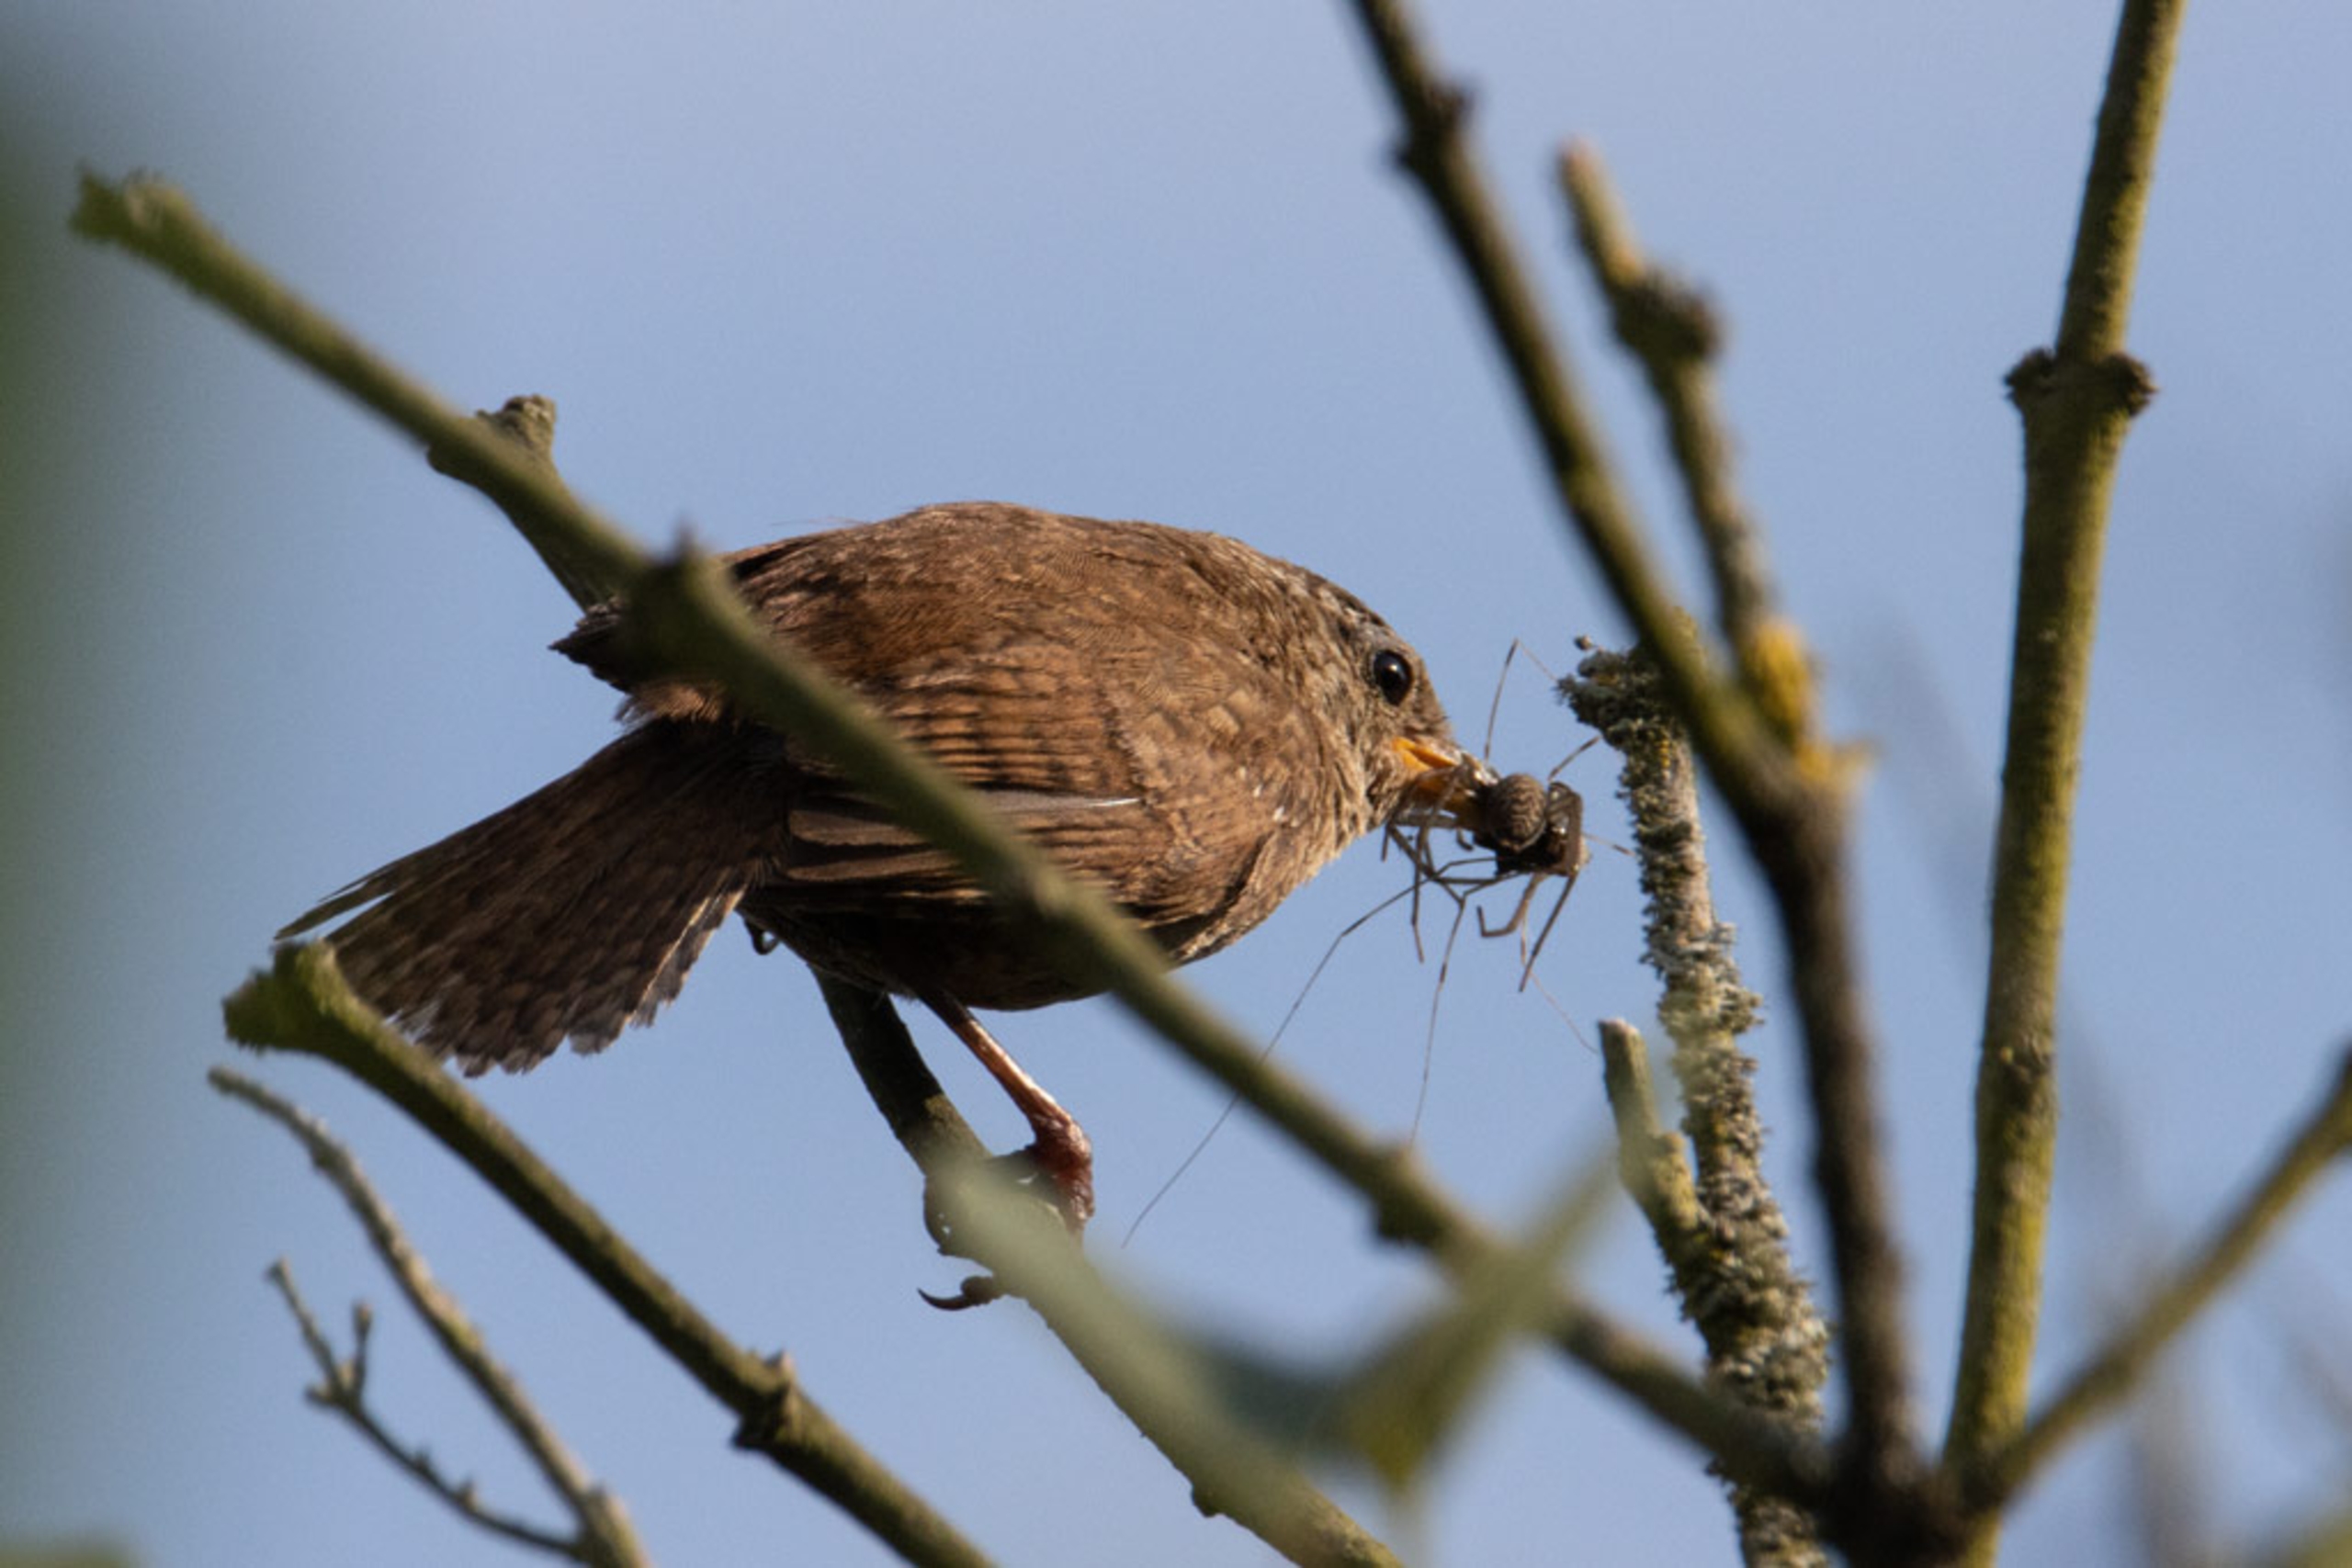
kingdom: Animalia
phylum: Chordata
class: Aves
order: Passeriformes
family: Troglodytidae
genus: Troglodytes
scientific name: Troglodytes troglodytes
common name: Gærdesmutte
